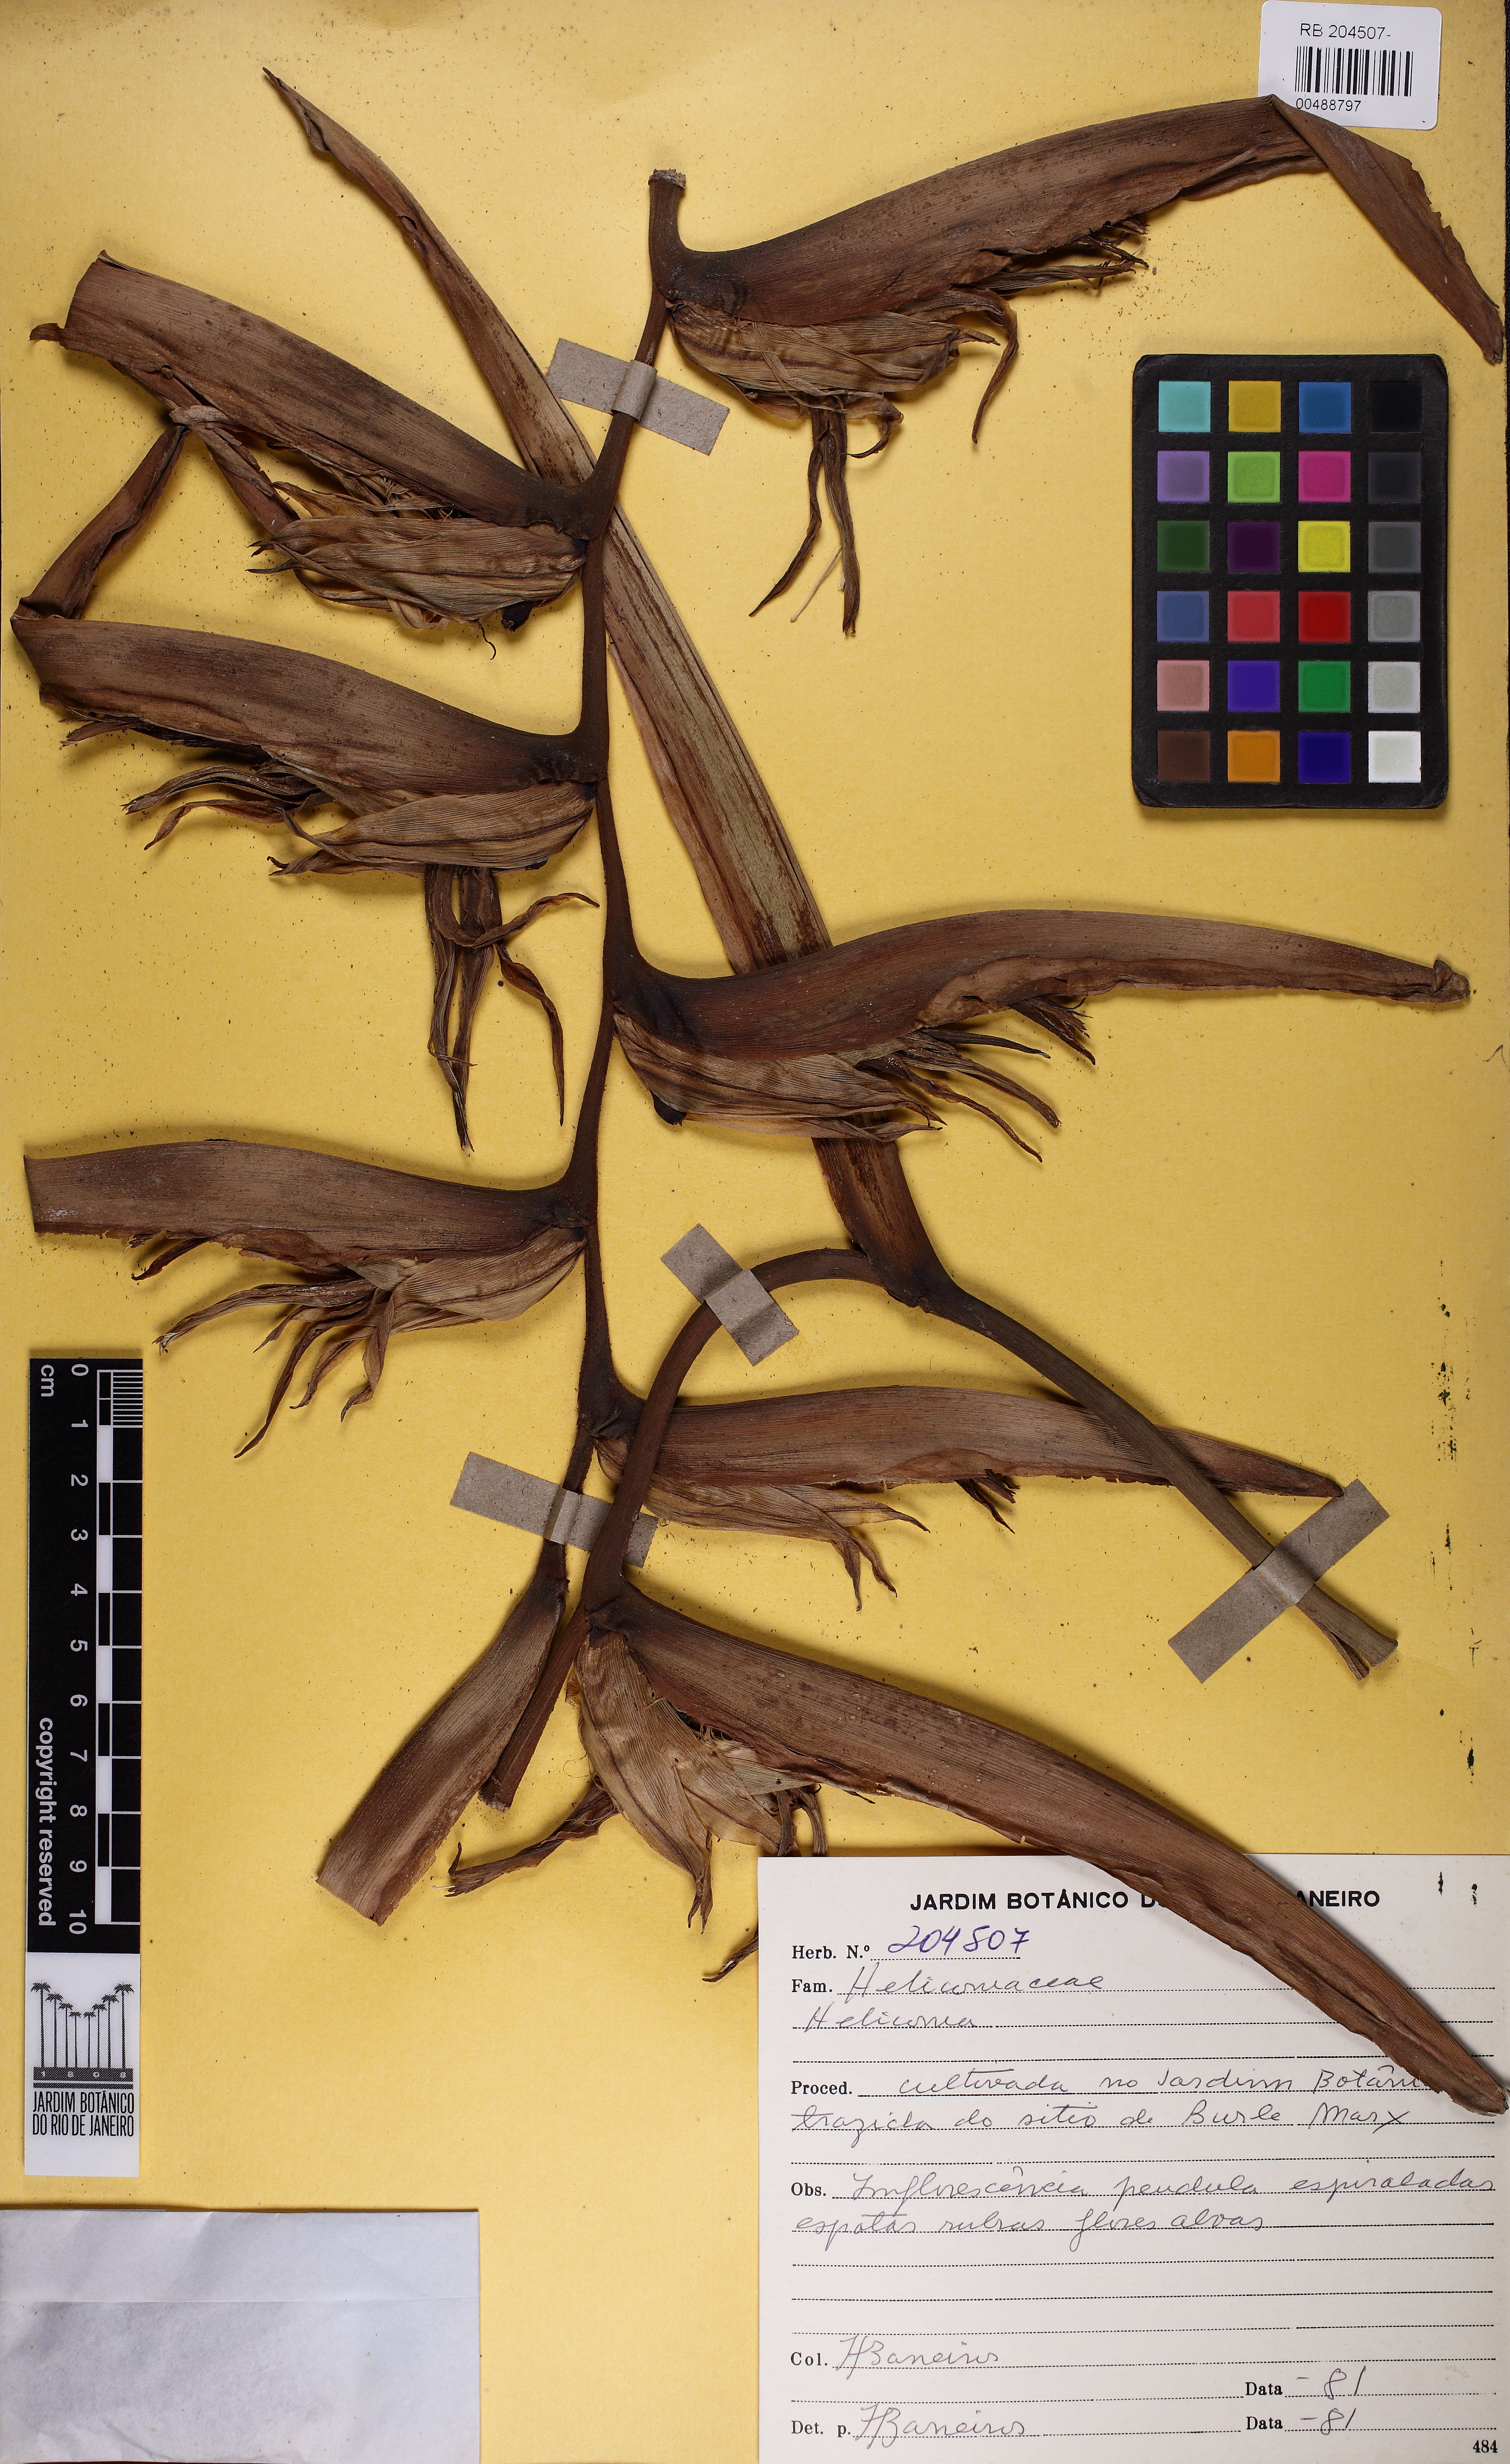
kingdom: Plantae
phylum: Tracheophyta
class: Liliopsida
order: Zingiberales
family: Heliconiaceae
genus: Heliconia
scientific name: Heliconia pendula
